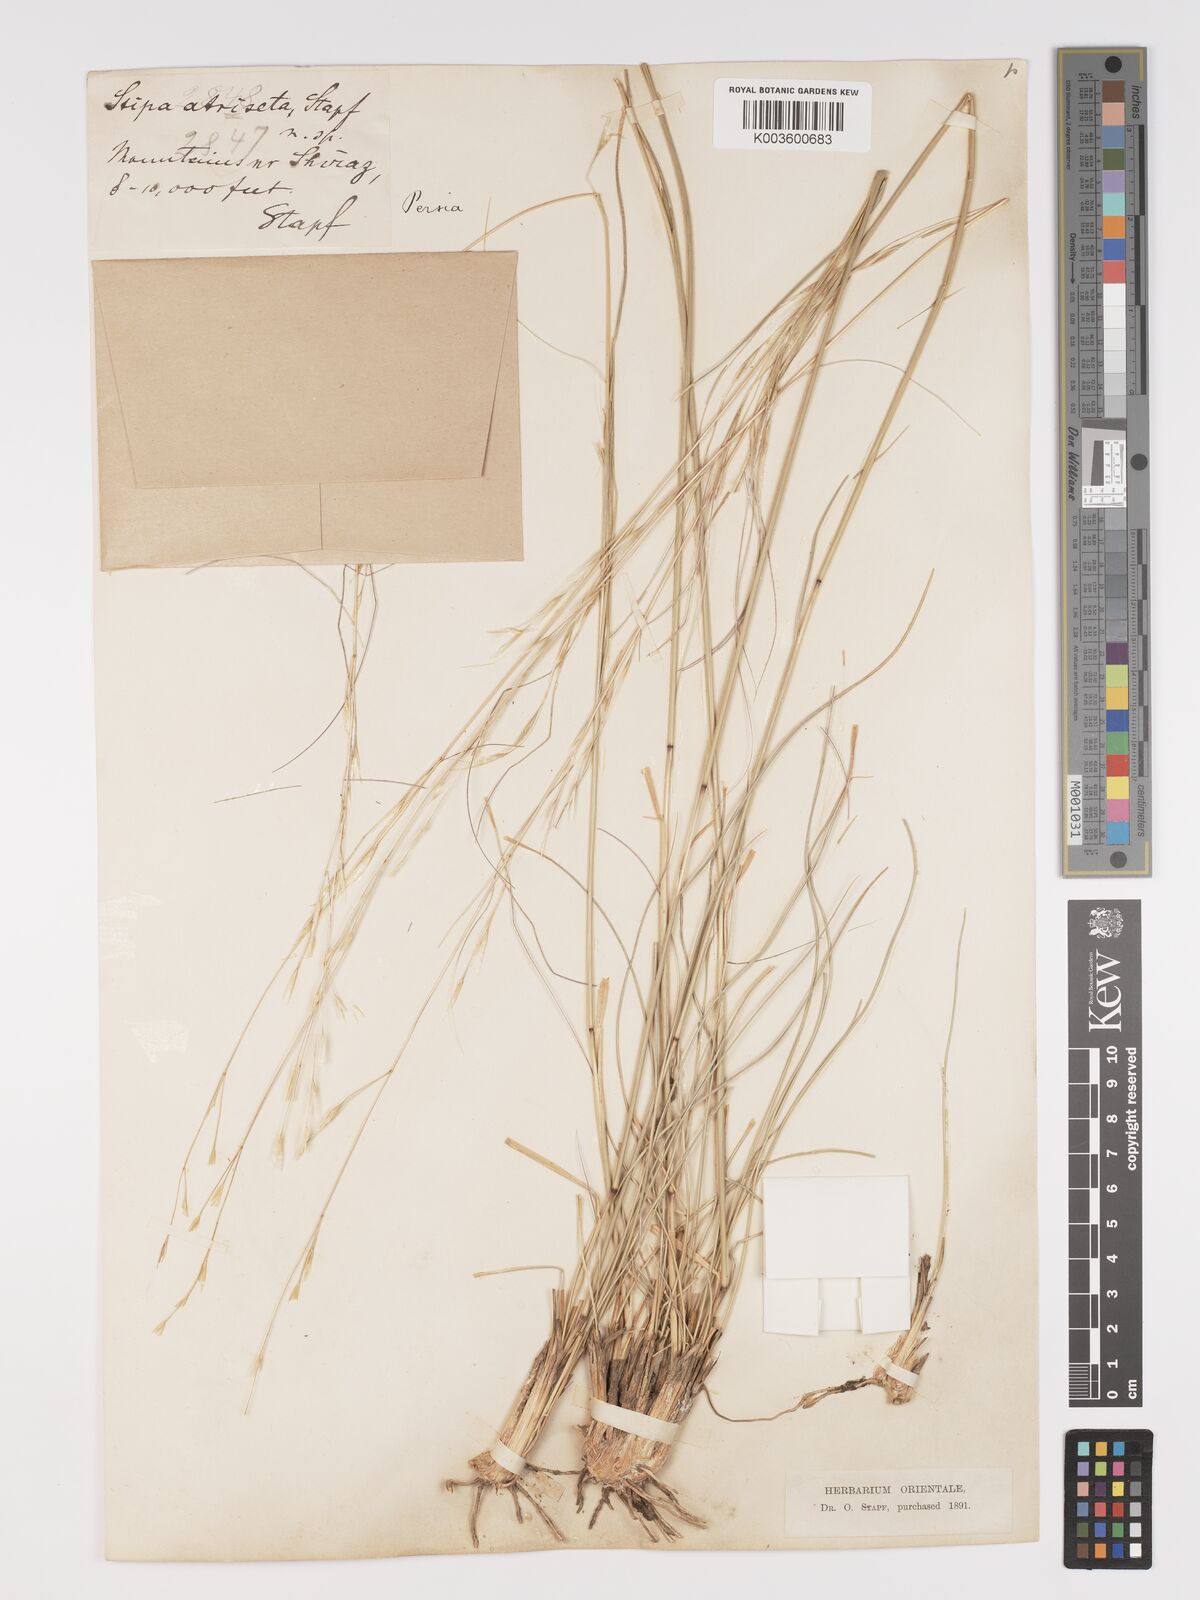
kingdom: Plantae
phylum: Tracheophyta
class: Liliopsida
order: Poales
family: Poaceae
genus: Stipa
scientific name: Stipa hohenackeriana
